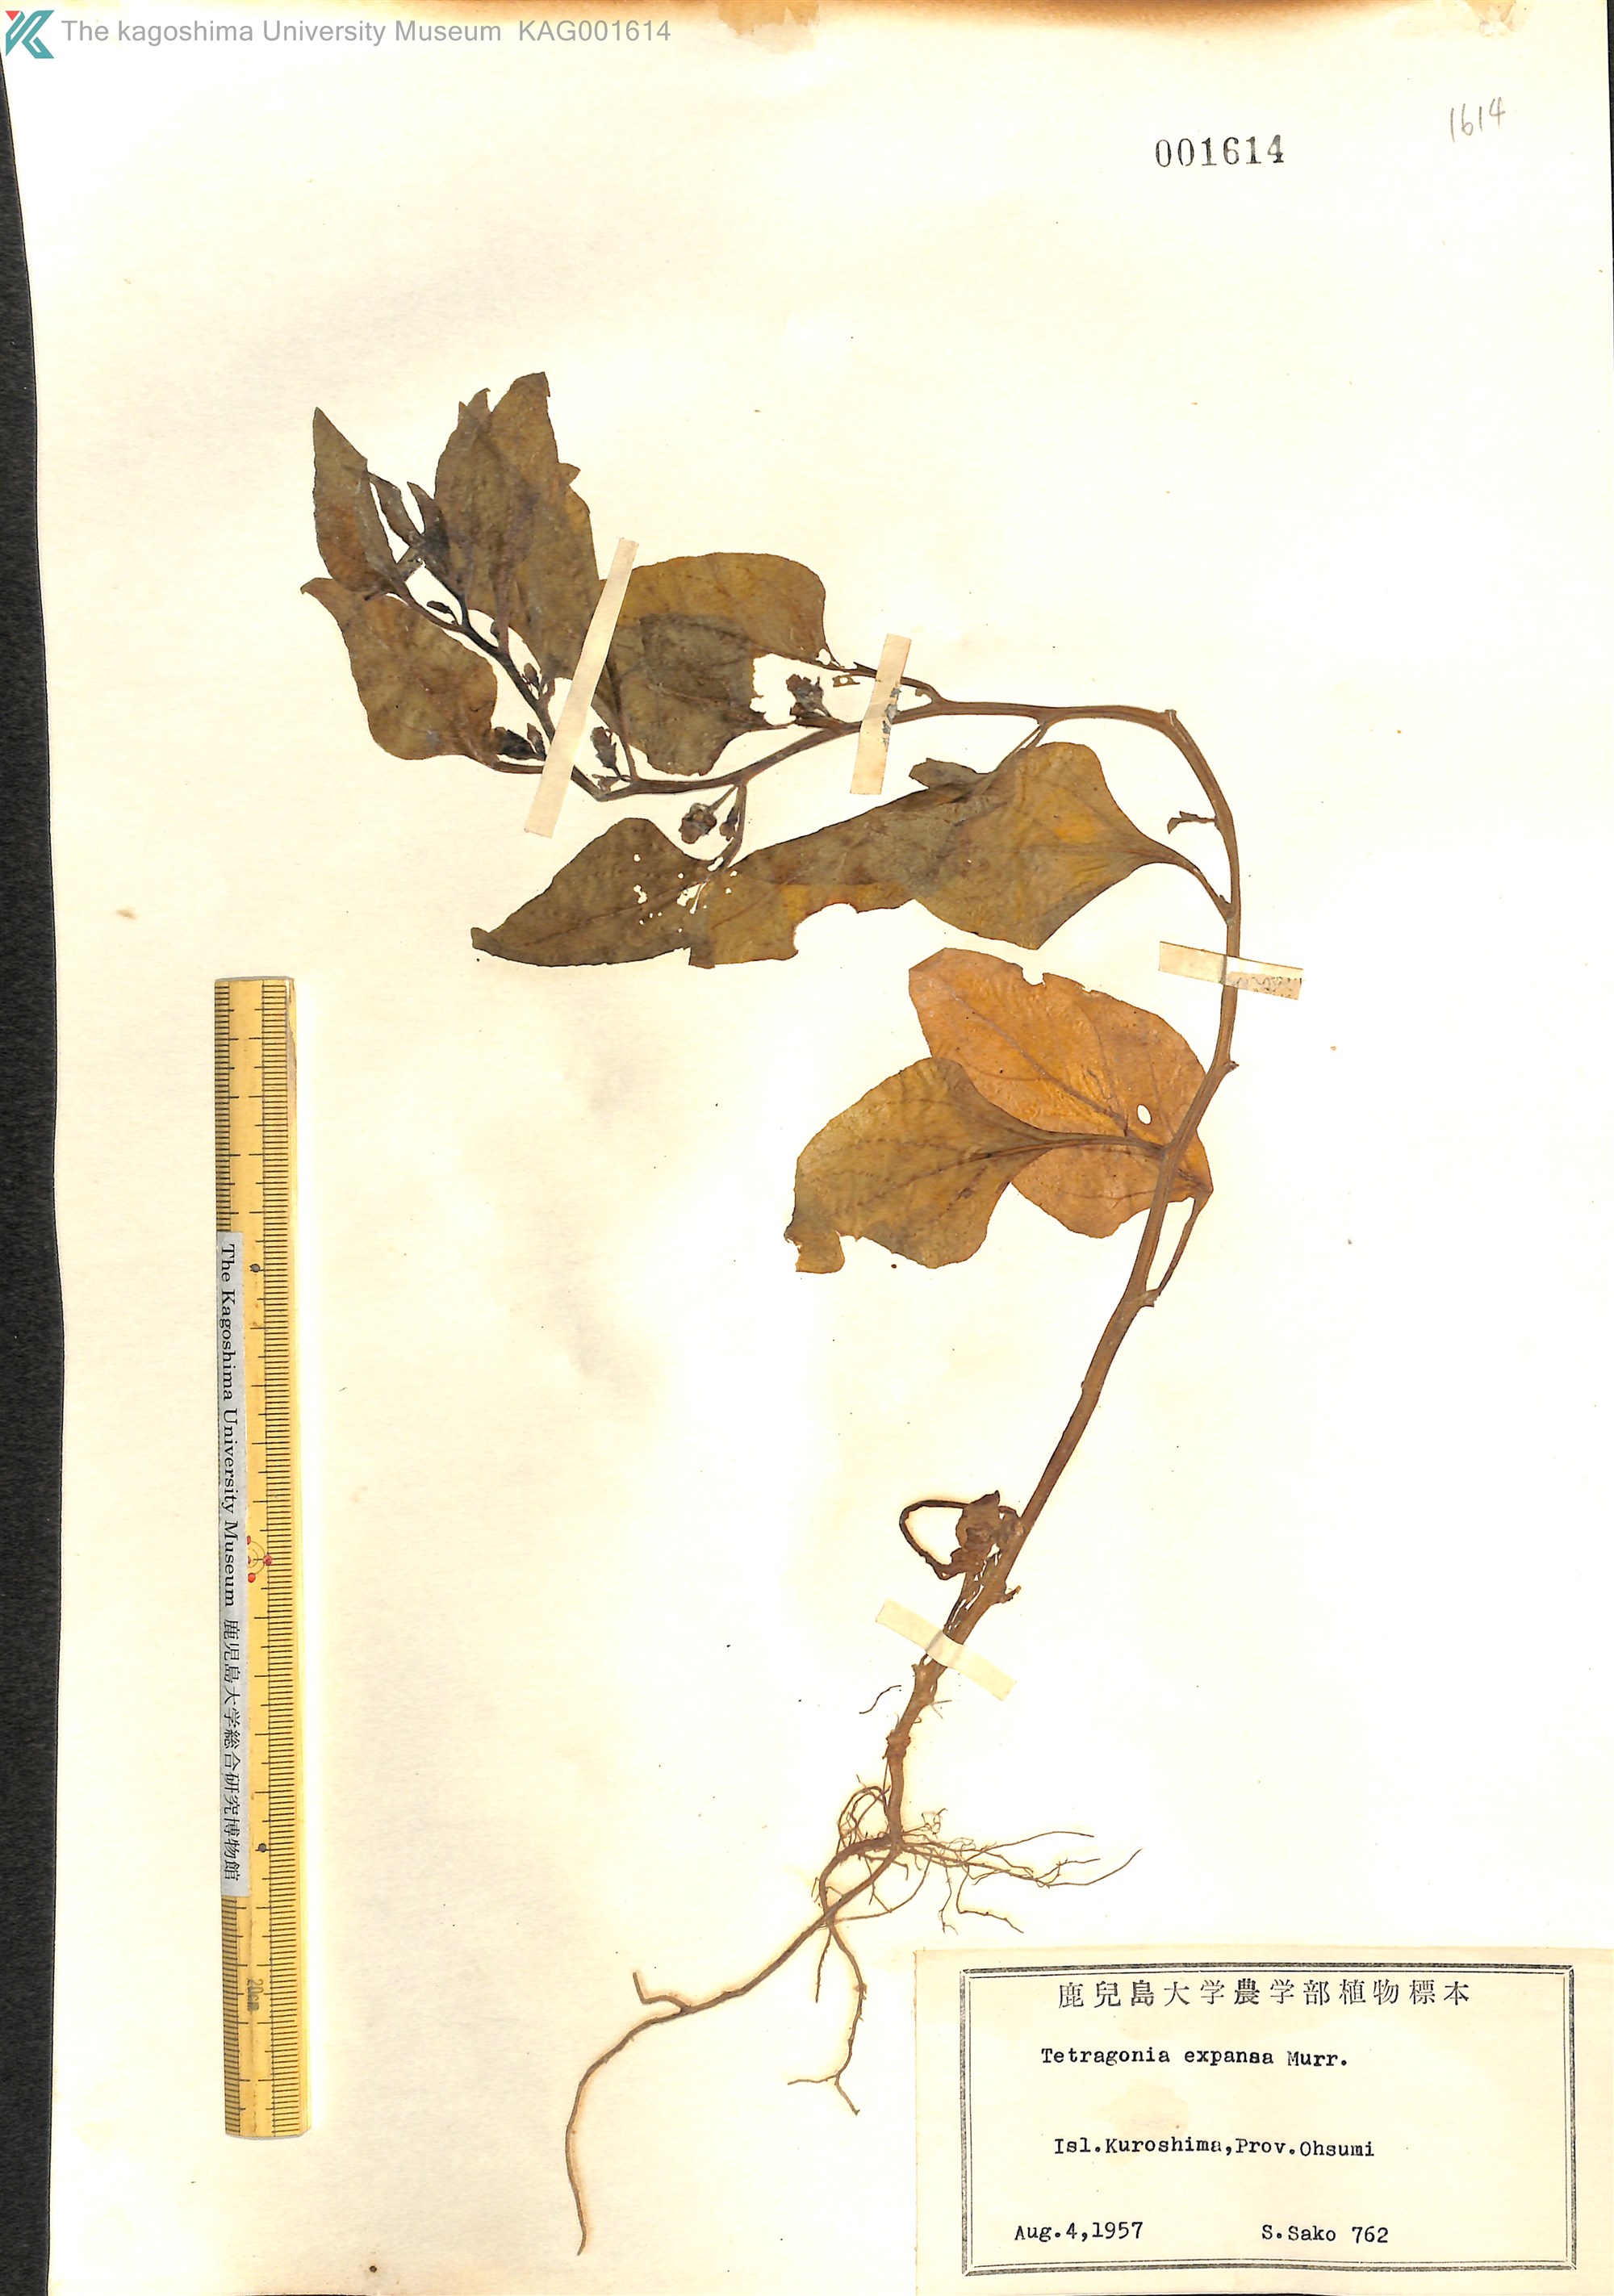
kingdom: Plantae
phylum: Tracheophyta
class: Magnoliopsida
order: Caryophyllales
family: Aizoaceae
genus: Tetragonia
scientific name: Tetragonia tetragonoides
